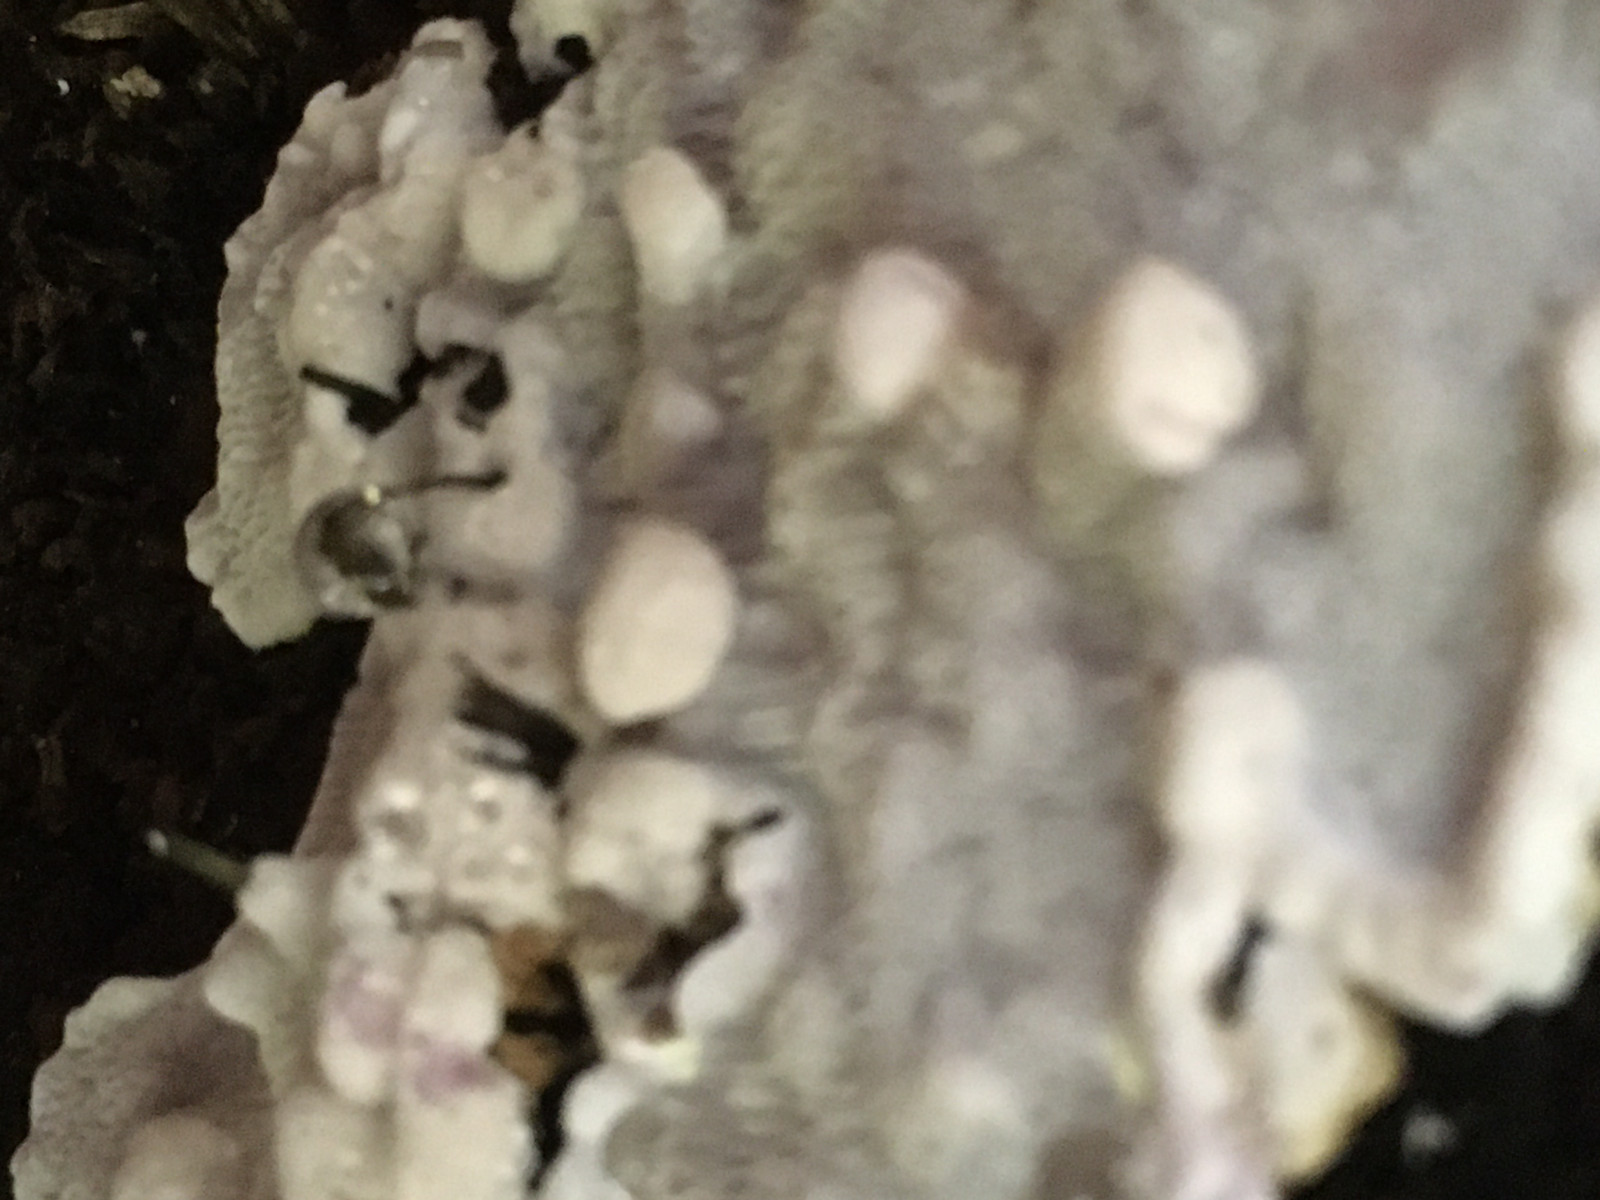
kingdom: Fungi
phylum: Basidiomycota
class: Agaricomycetes
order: Polyporales
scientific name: Polyporales
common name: poresvampordenen
